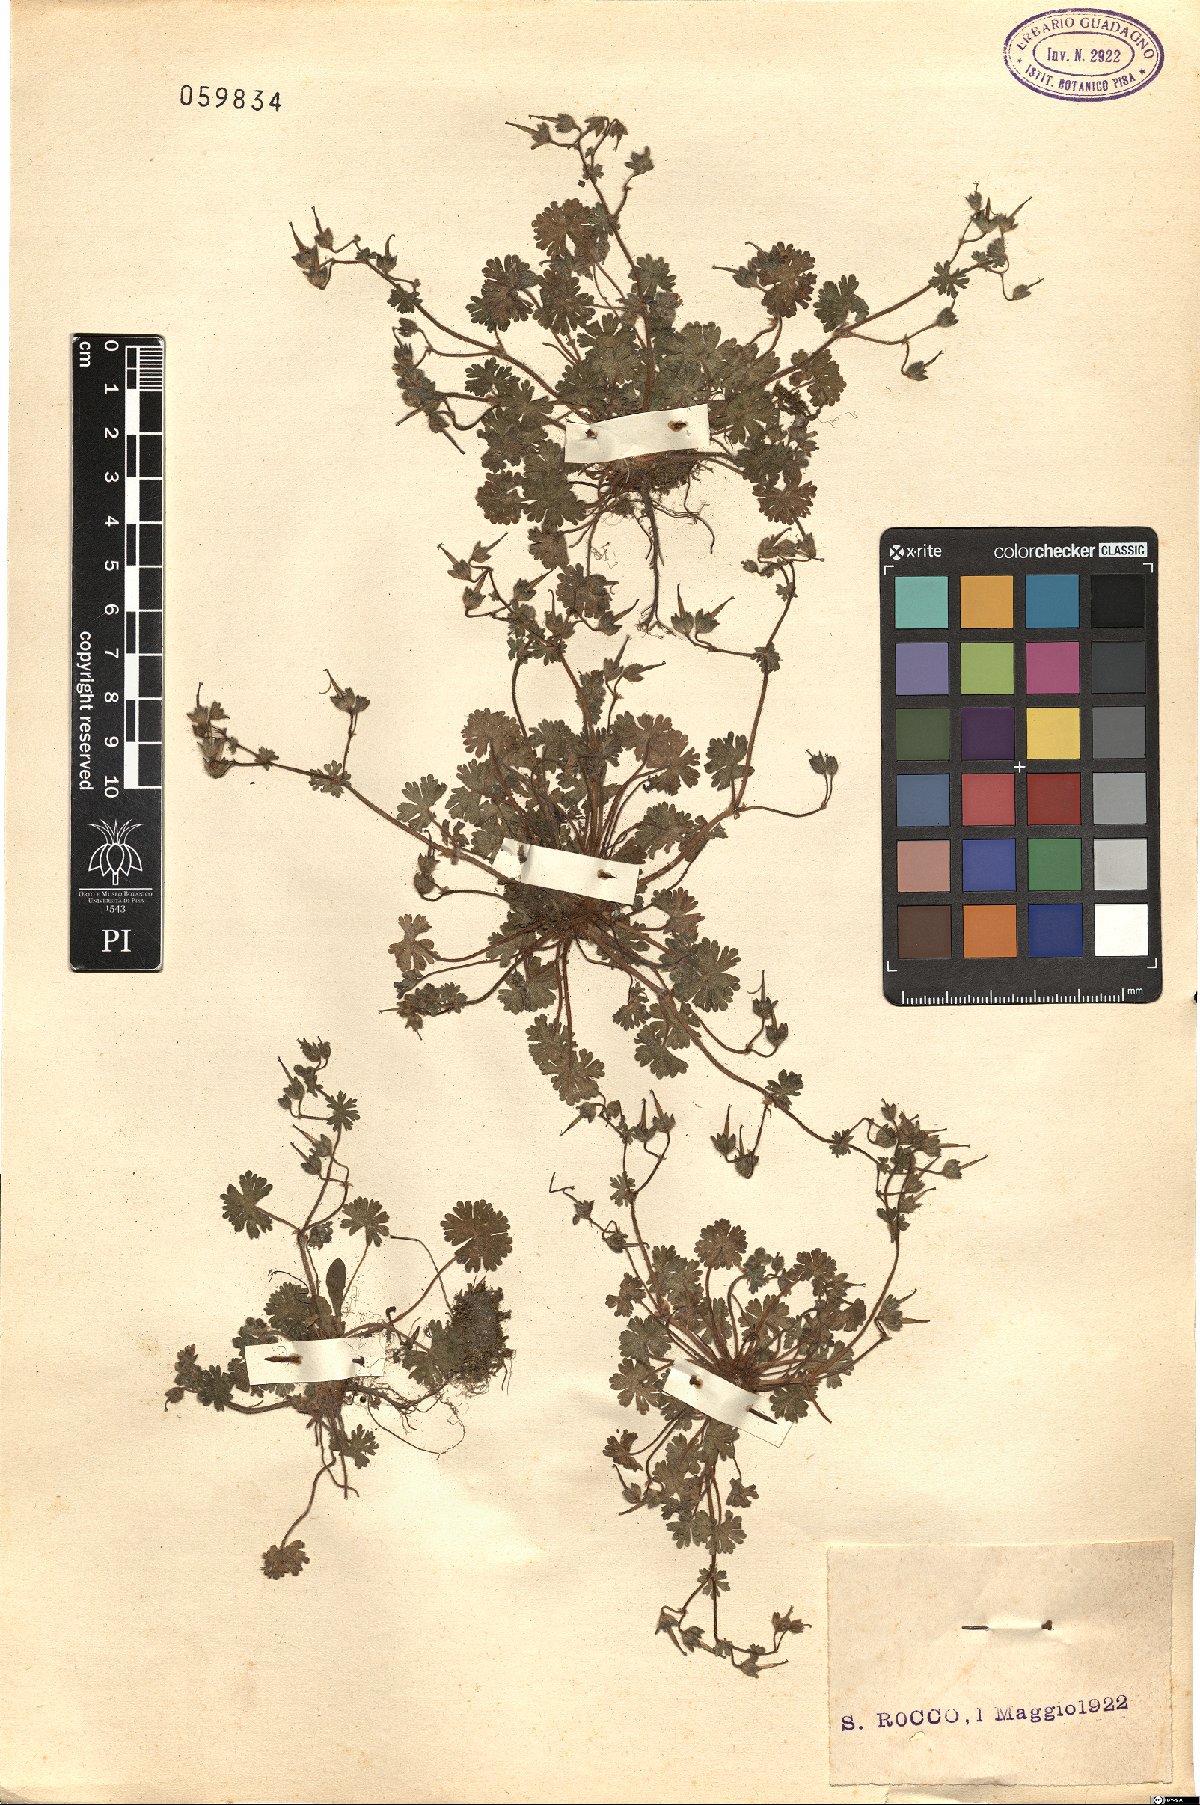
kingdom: Plantae
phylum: Tracheophyta
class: Magnoliopsida
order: Geraniales
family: Geraniaceae
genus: Geranium
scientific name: Geranium
